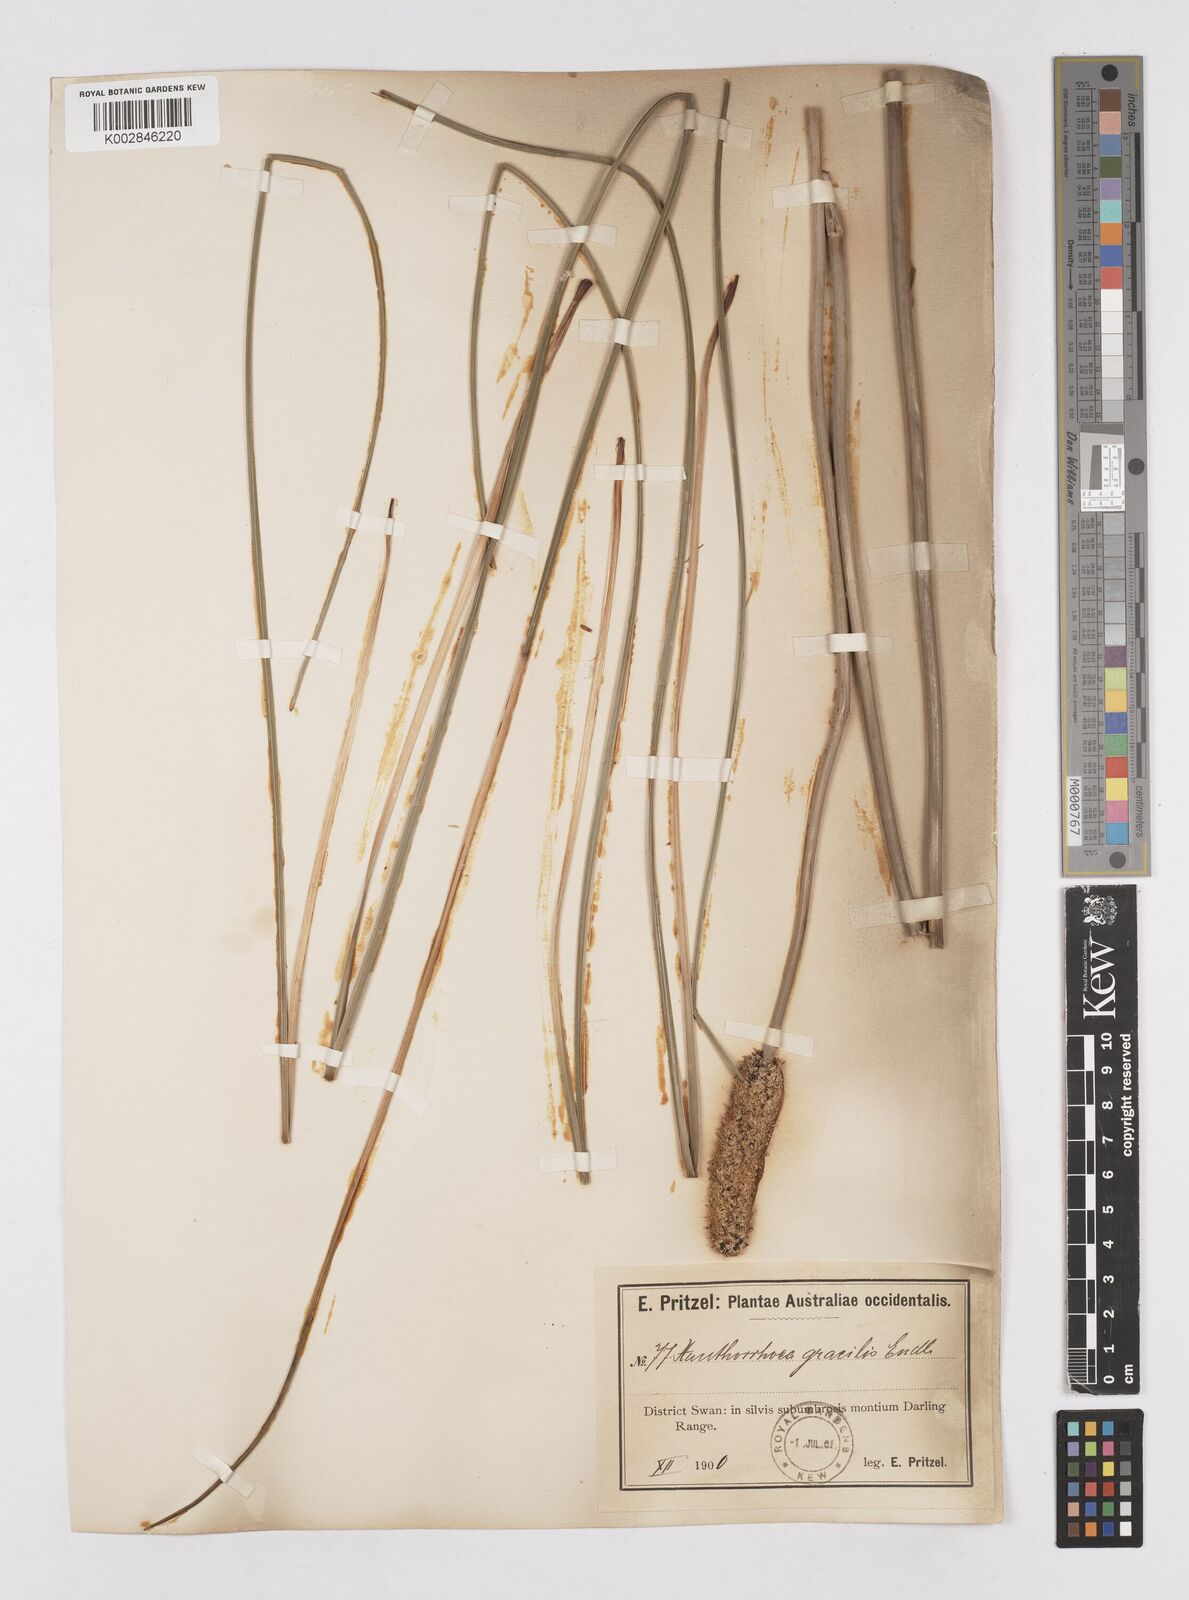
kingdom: Plantae
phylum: Tracheophyta
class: Liliopsida
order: Asparagales
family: Asphodelaceae
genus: Xanthorrhoea
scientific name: Xanthorrhoea gracilis
